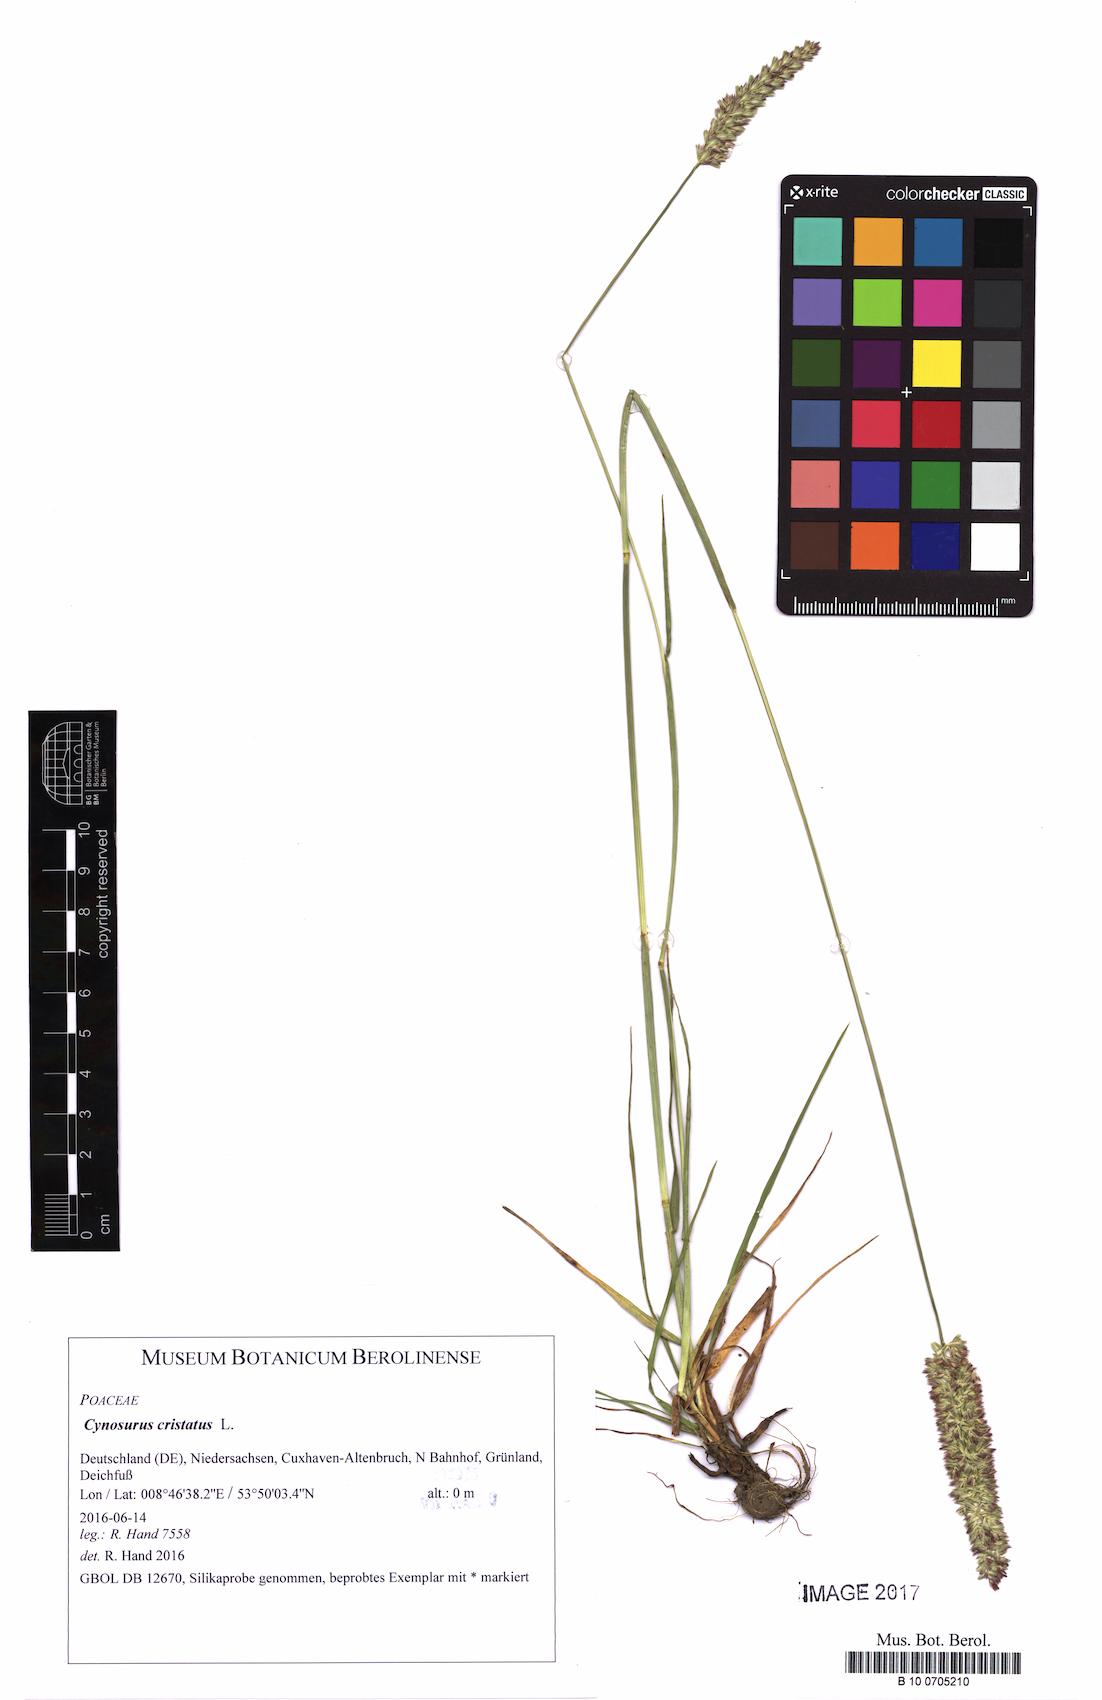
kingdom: Plantae
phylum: Tracheophyta
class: Liliopsida
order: Poales
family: Poaceae
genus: Cynosurus
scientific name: Cynosurus cristatus
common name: Crested dog's-tail
